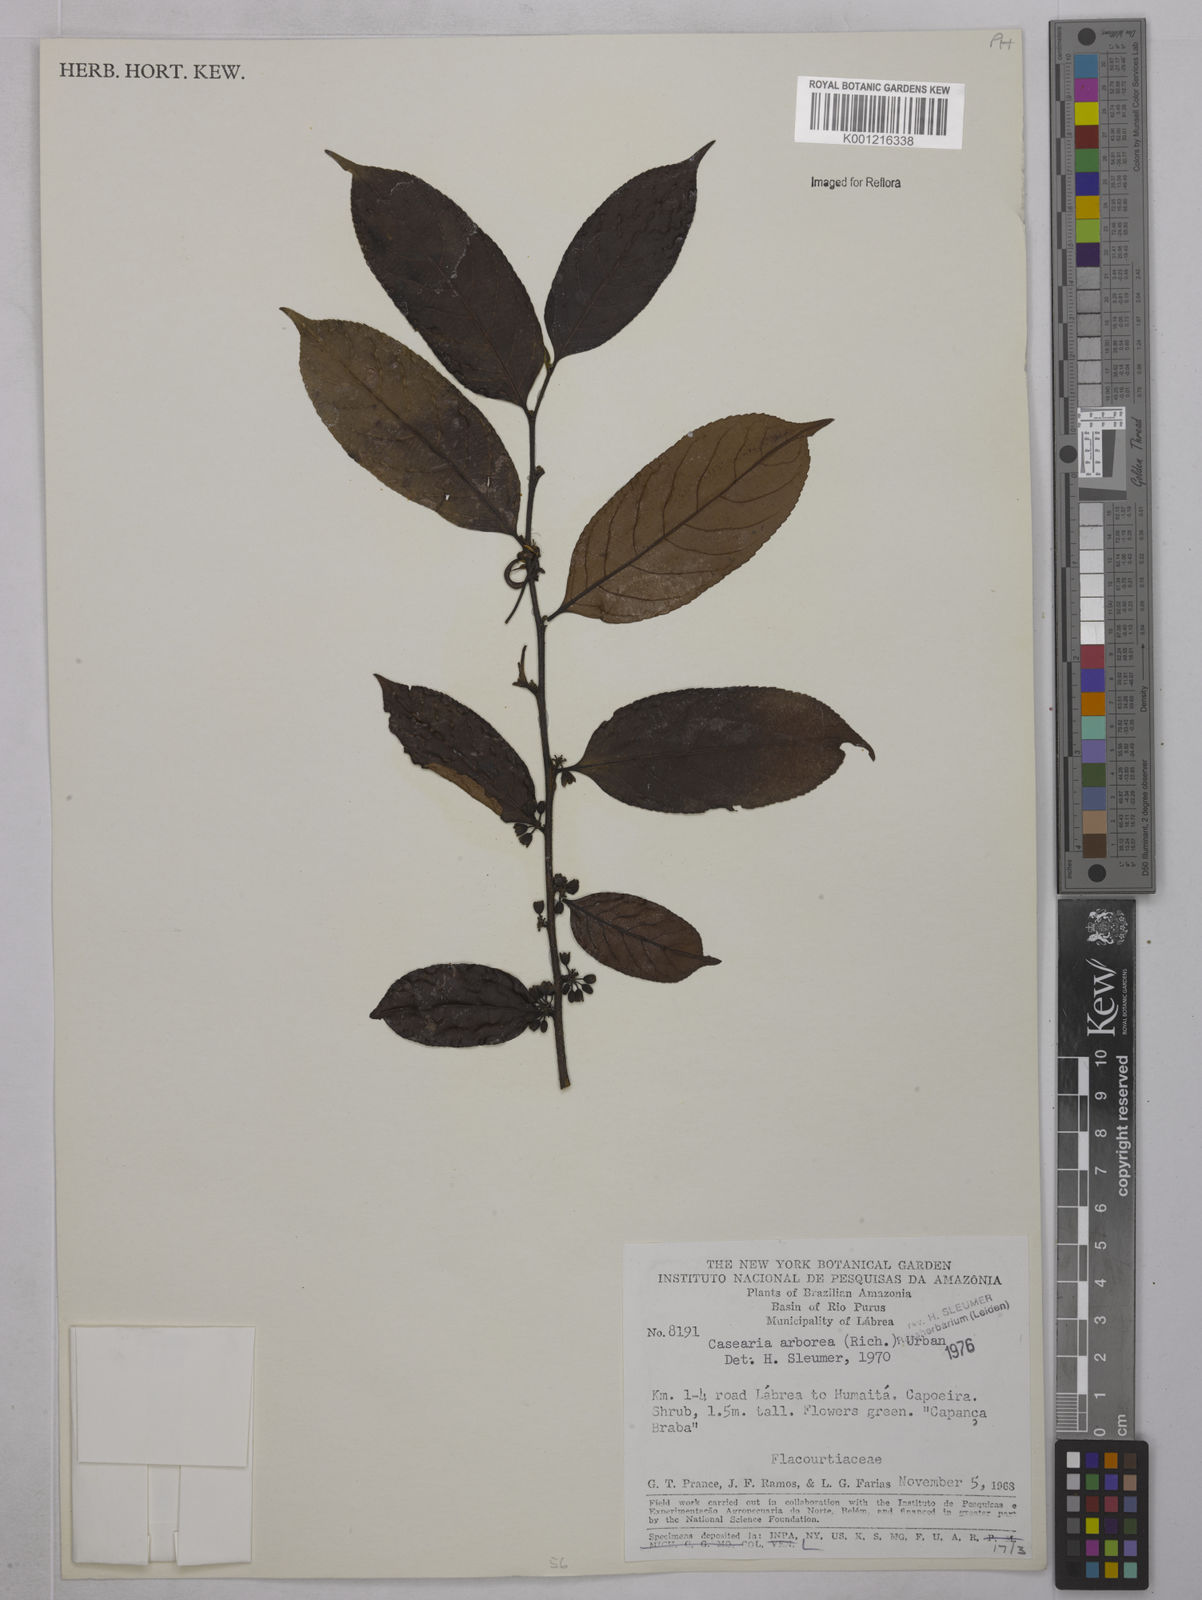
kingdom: Plantae
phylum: Tracheophyta
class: Magnoliopsida
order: Malpighiales
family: Salicaceae
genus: Casearia
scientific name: Casearia arborea
